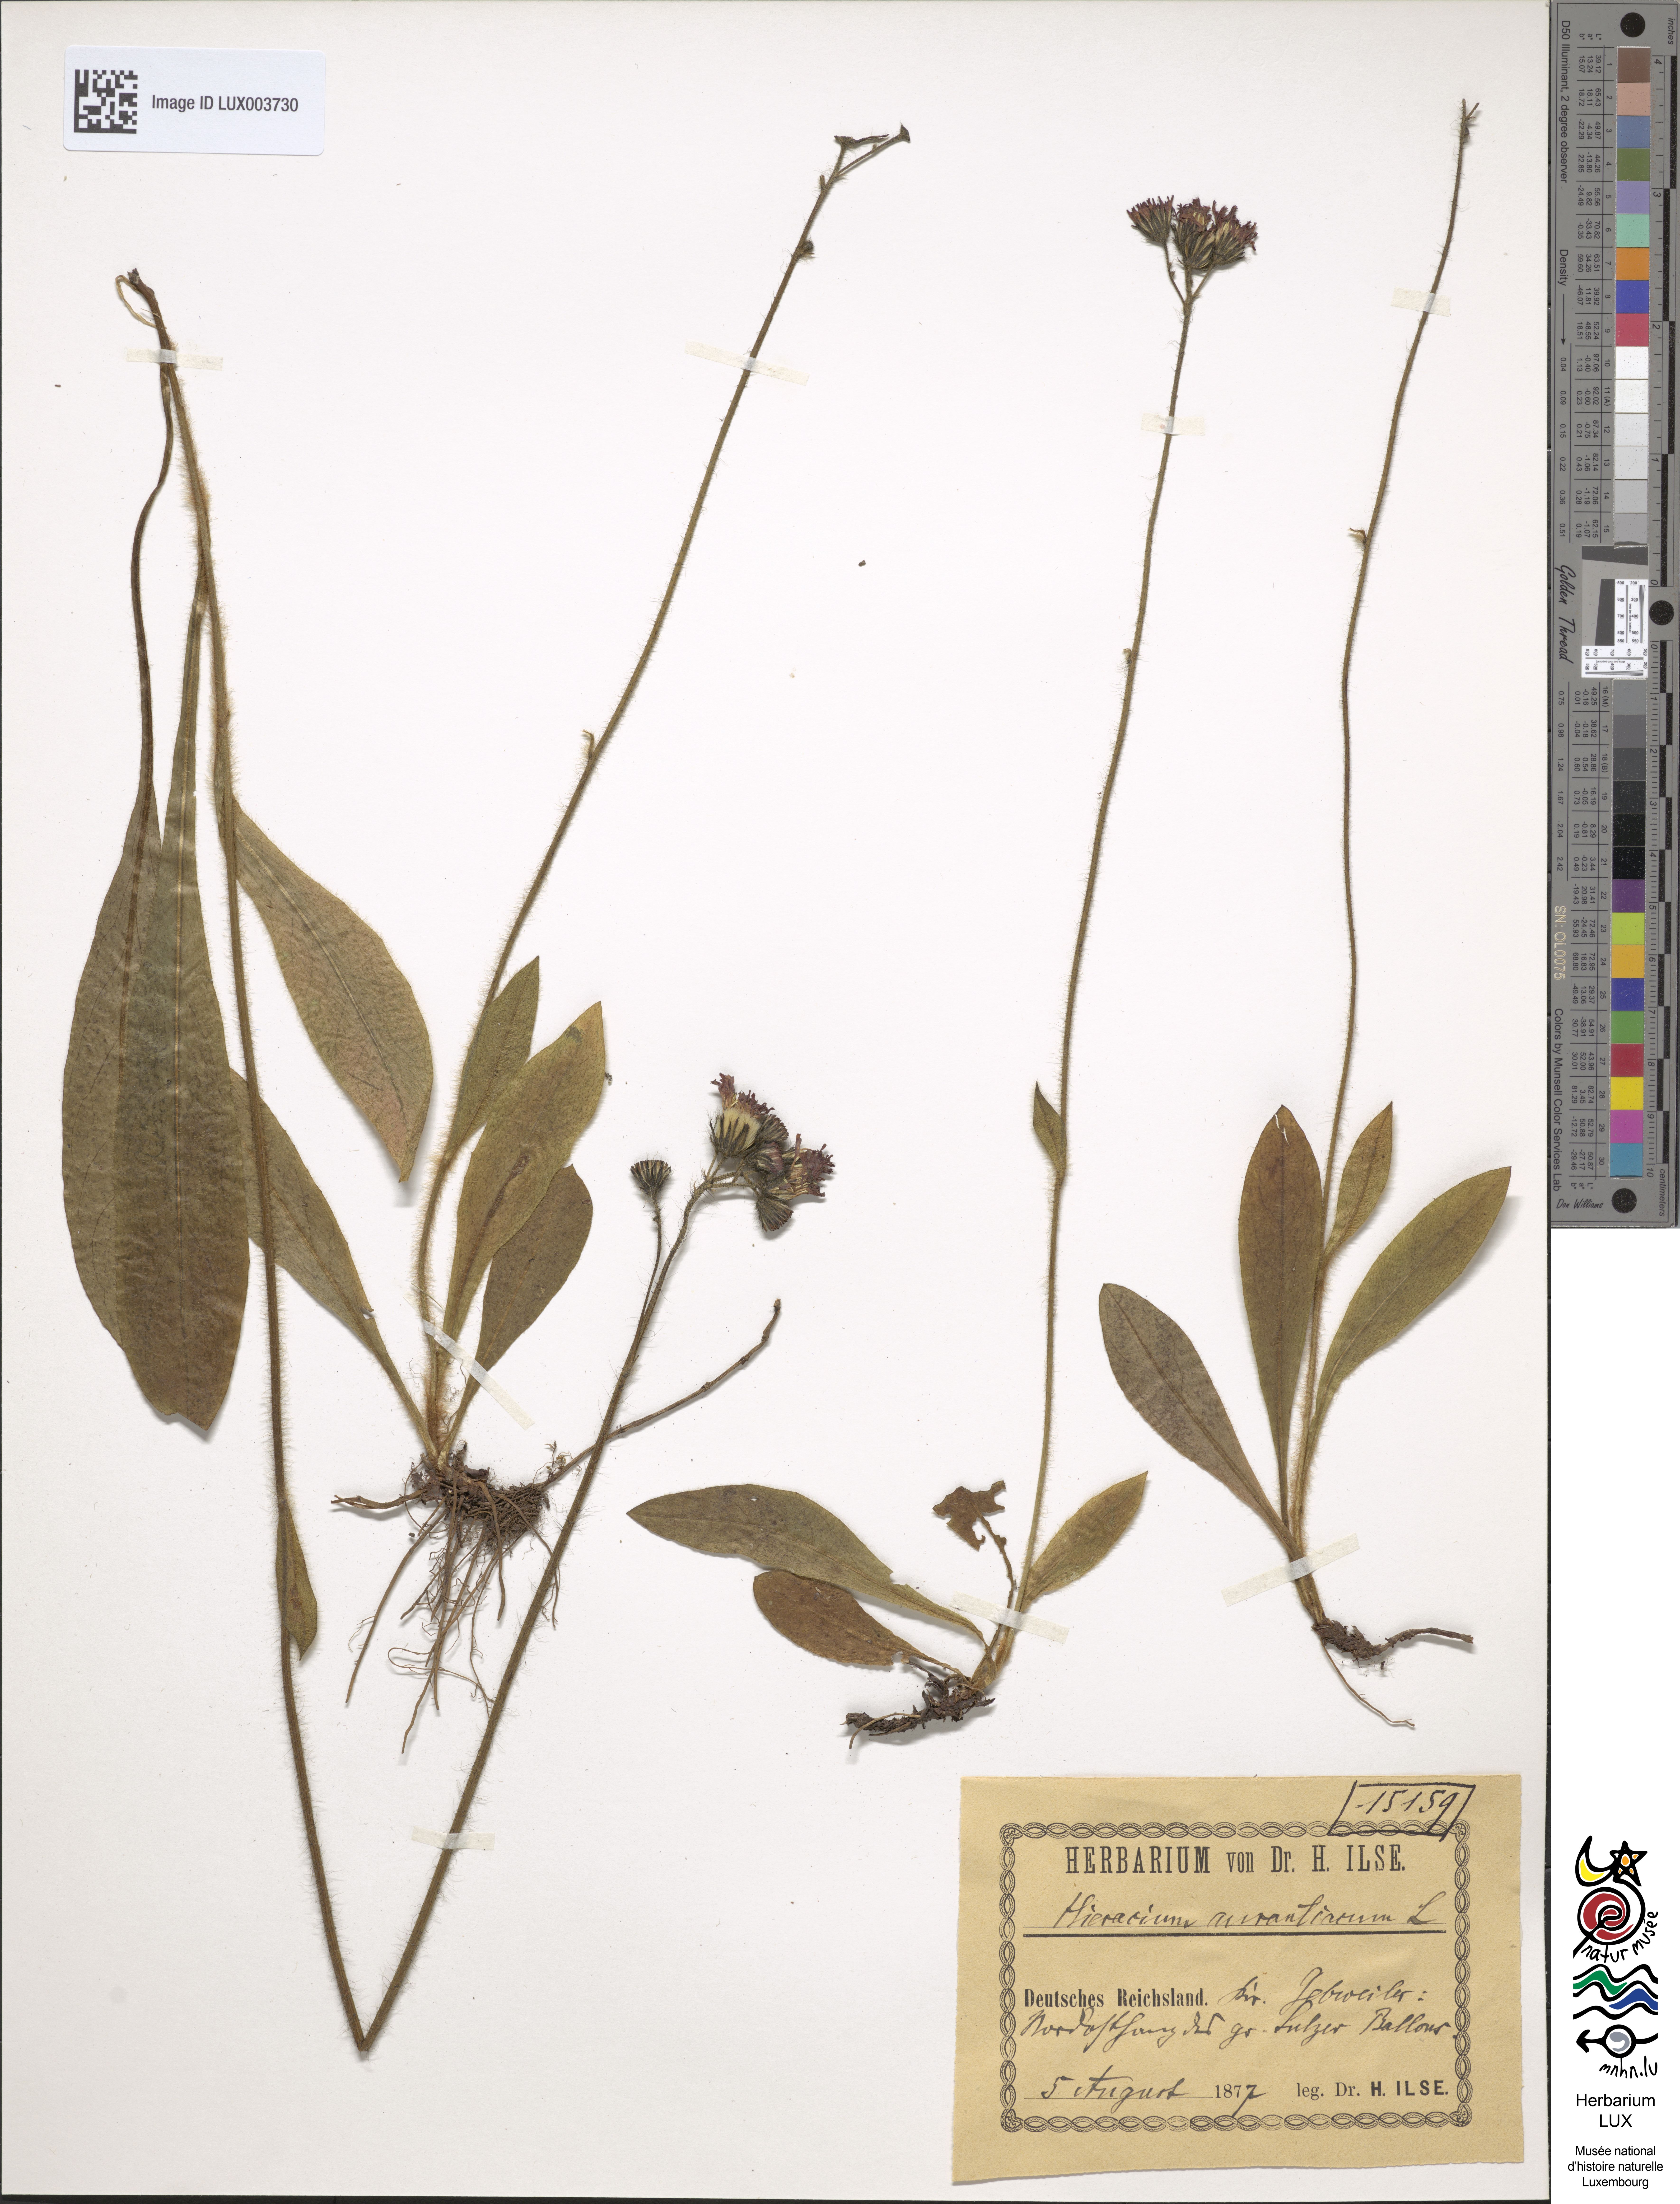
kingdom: Plantae
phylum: Tracheophyta
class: Magnoliopsida
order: Asterales
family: Asteraceae
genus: Pilosella
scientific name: Pilosella aurantiaca
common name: Fox-and-cubs
